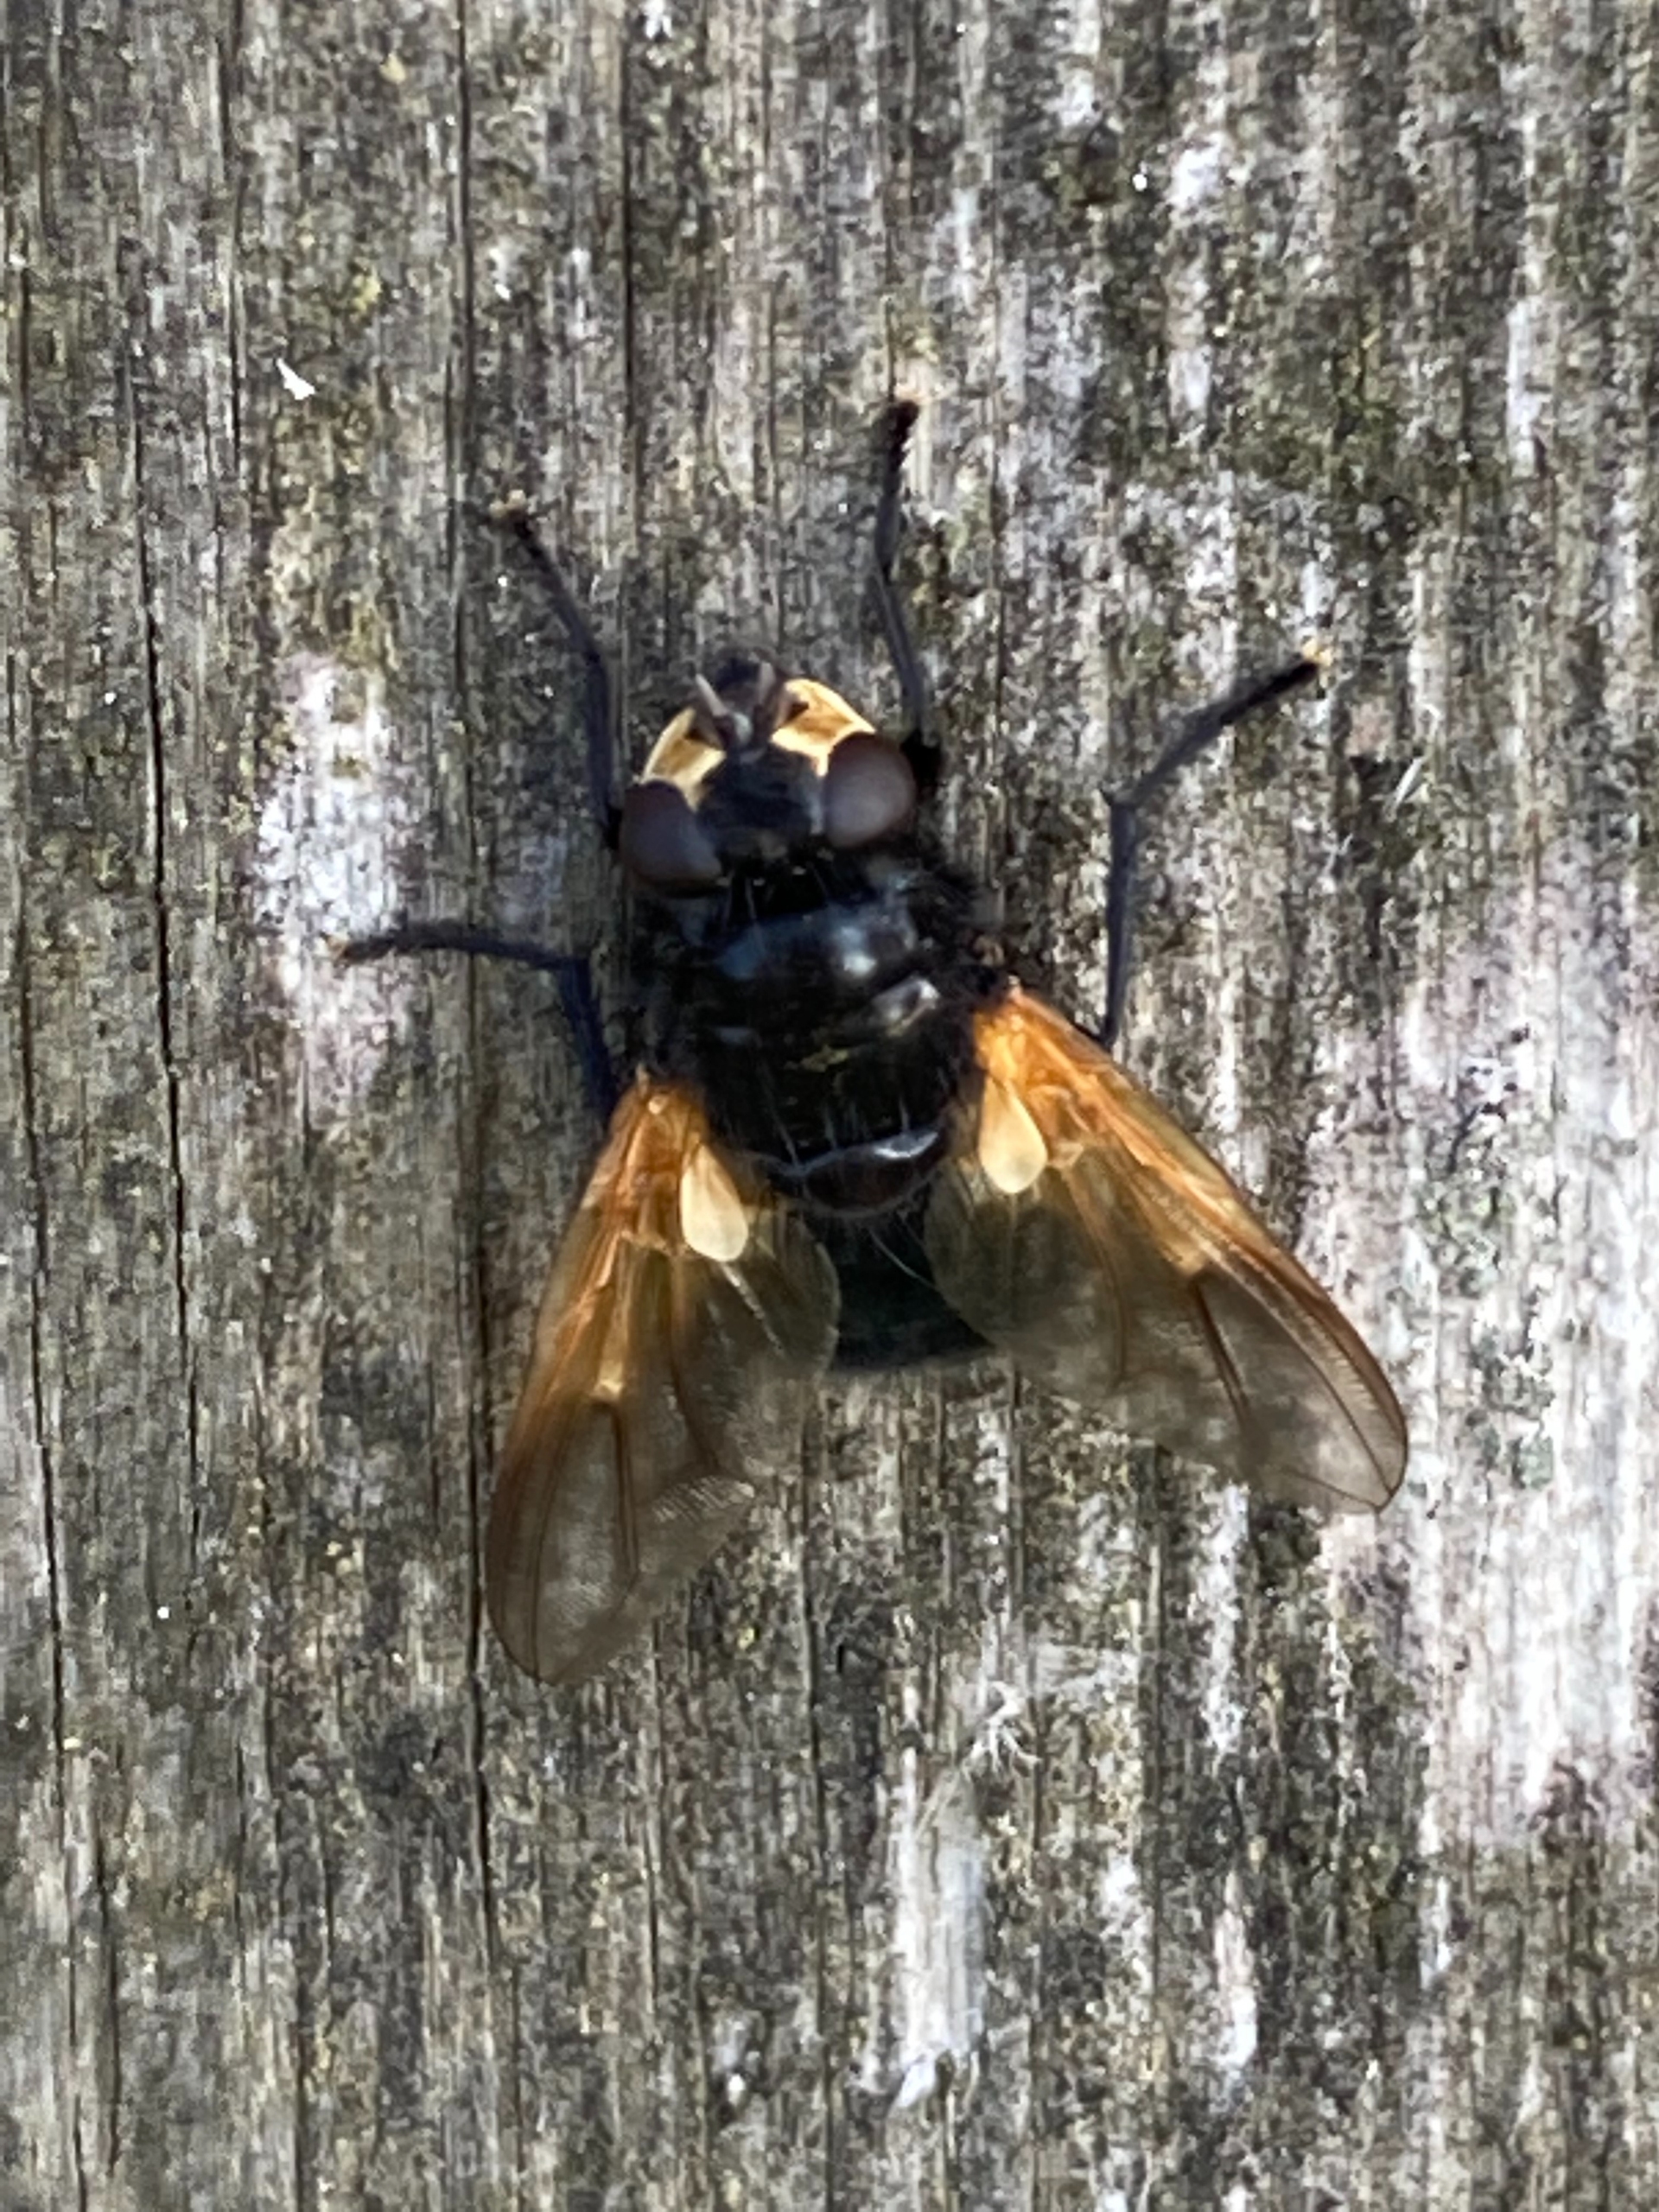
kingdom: Animalia
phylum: Arthropoda
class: Insecta
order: Diptera
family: Muscidae
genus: Mesembrina
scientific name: Mesembrina meridiana
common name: Gulvinget flue
